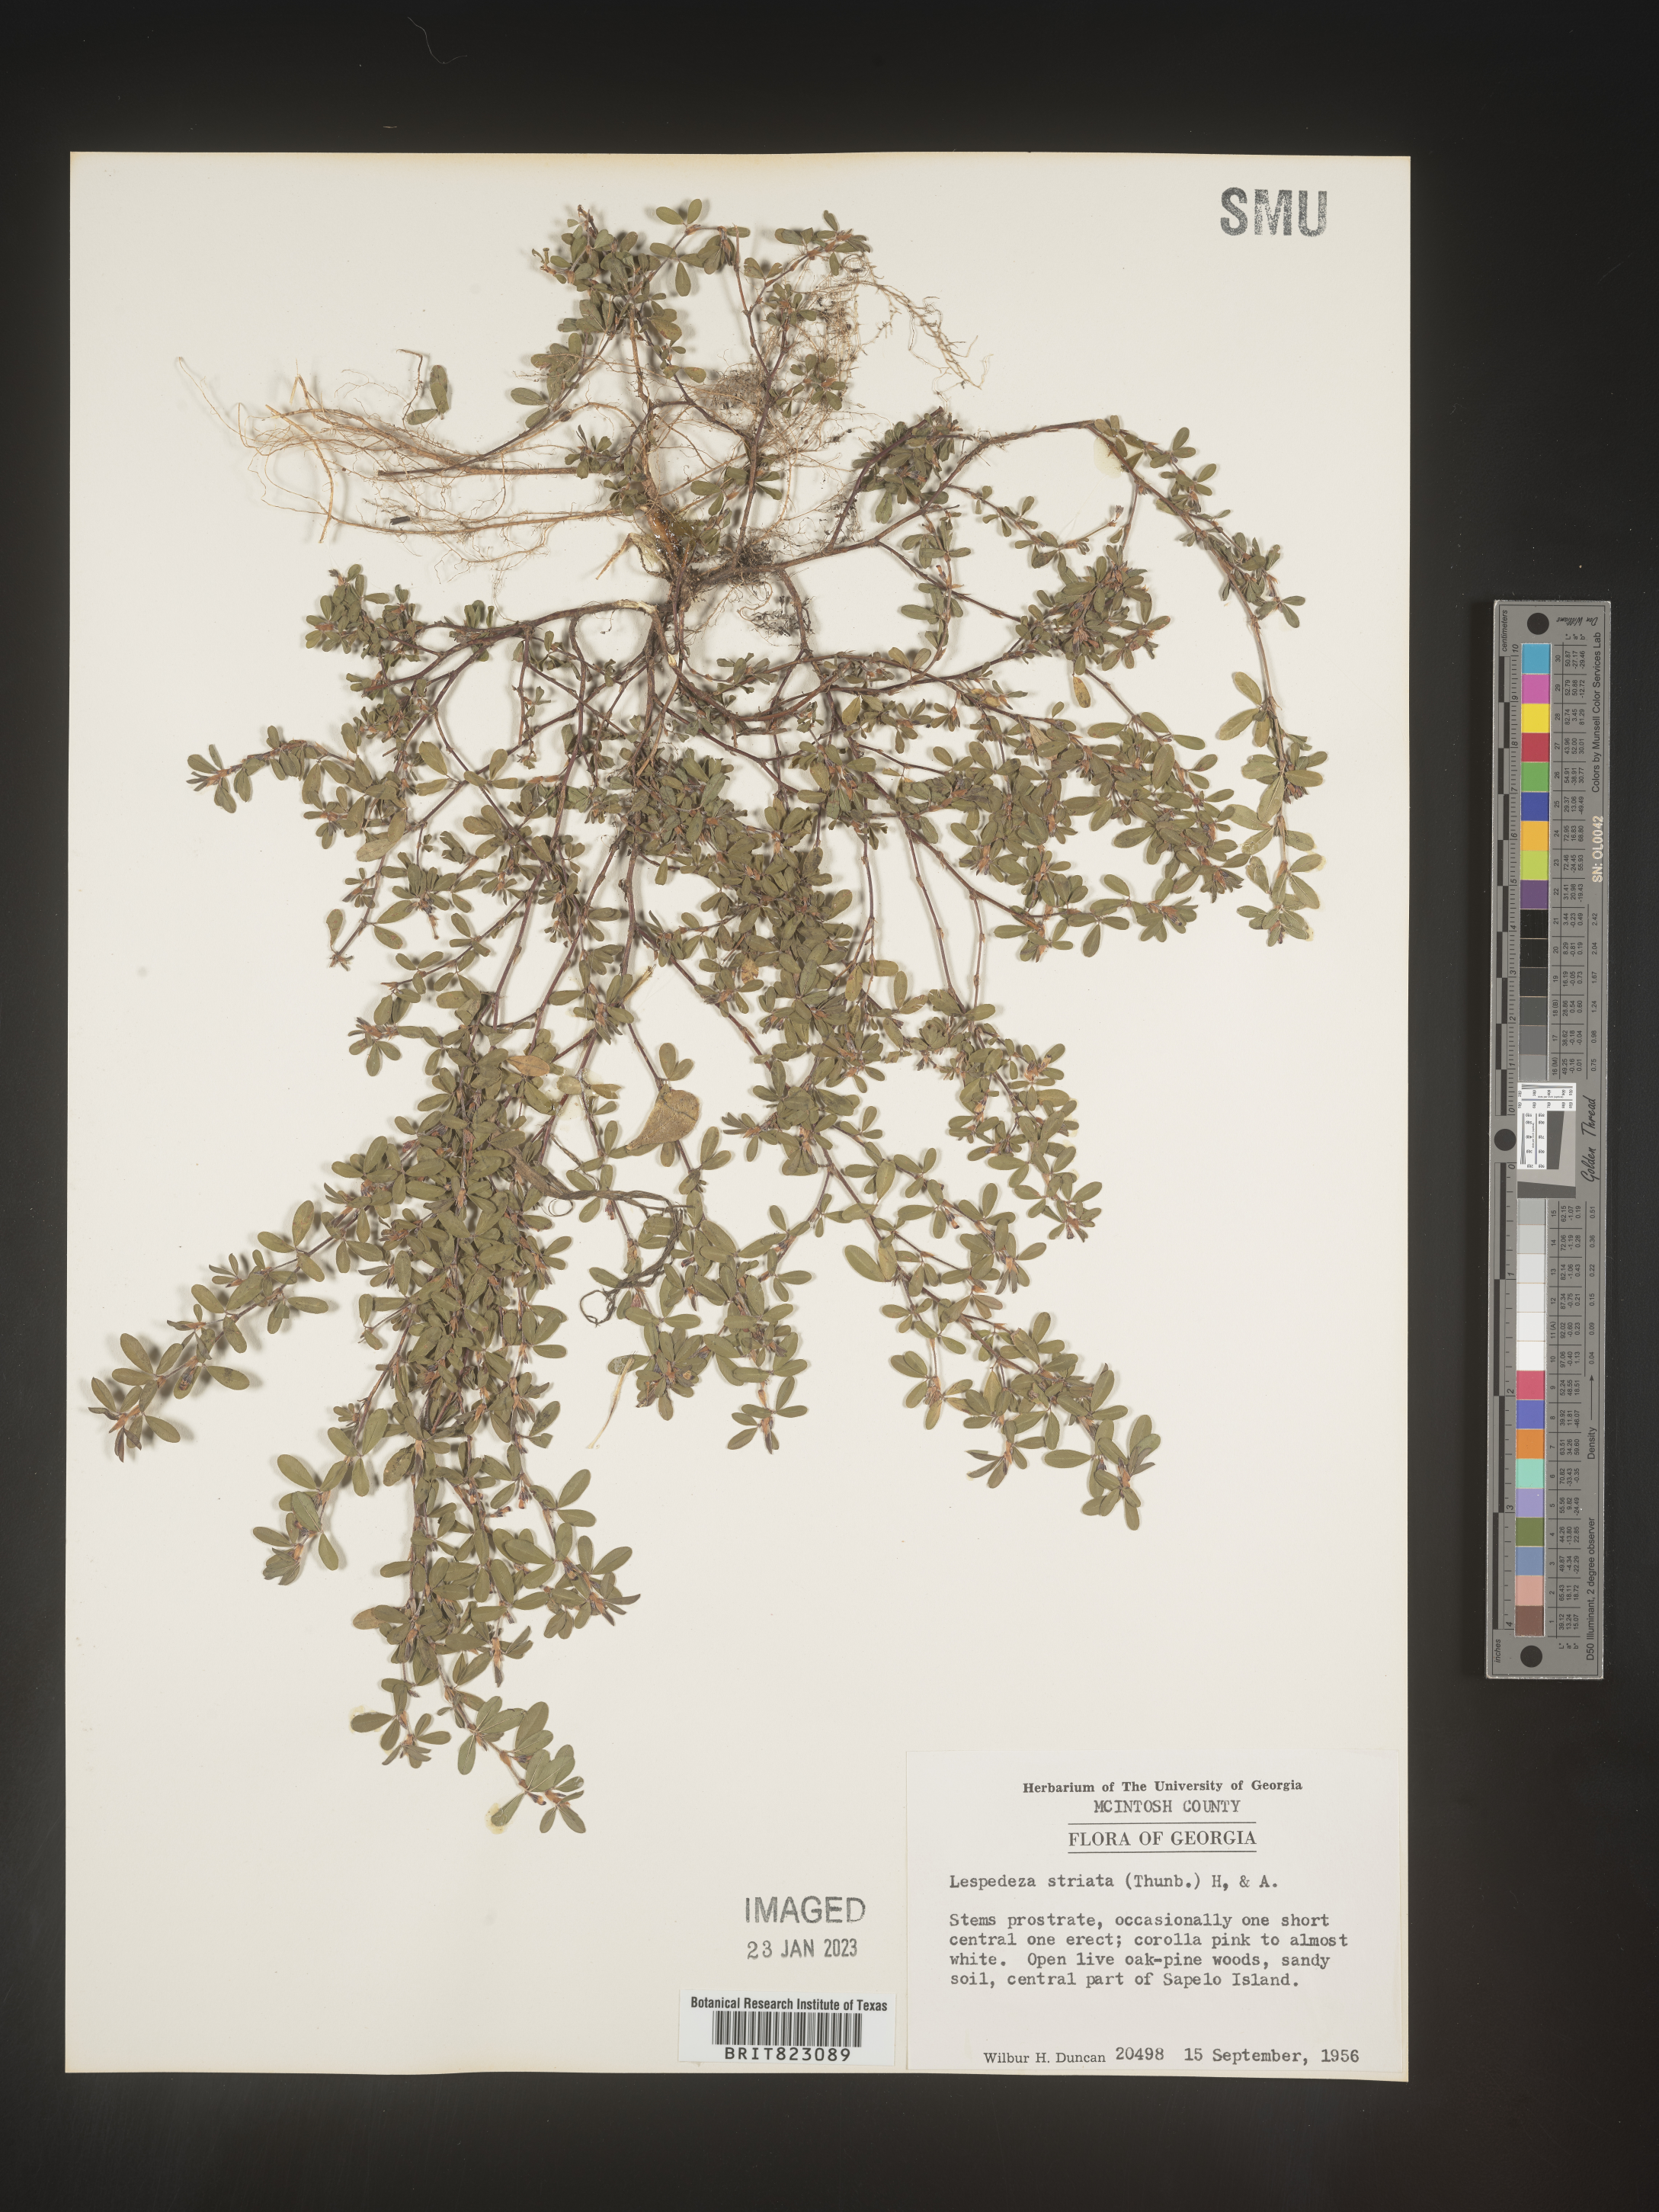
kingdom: Plantae
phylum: Tracheophyta
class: Magnoliopsida
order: Fabales
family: Fabaceae
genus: Kummerowia
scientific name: Kummerowia striata
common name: Japanese clover
